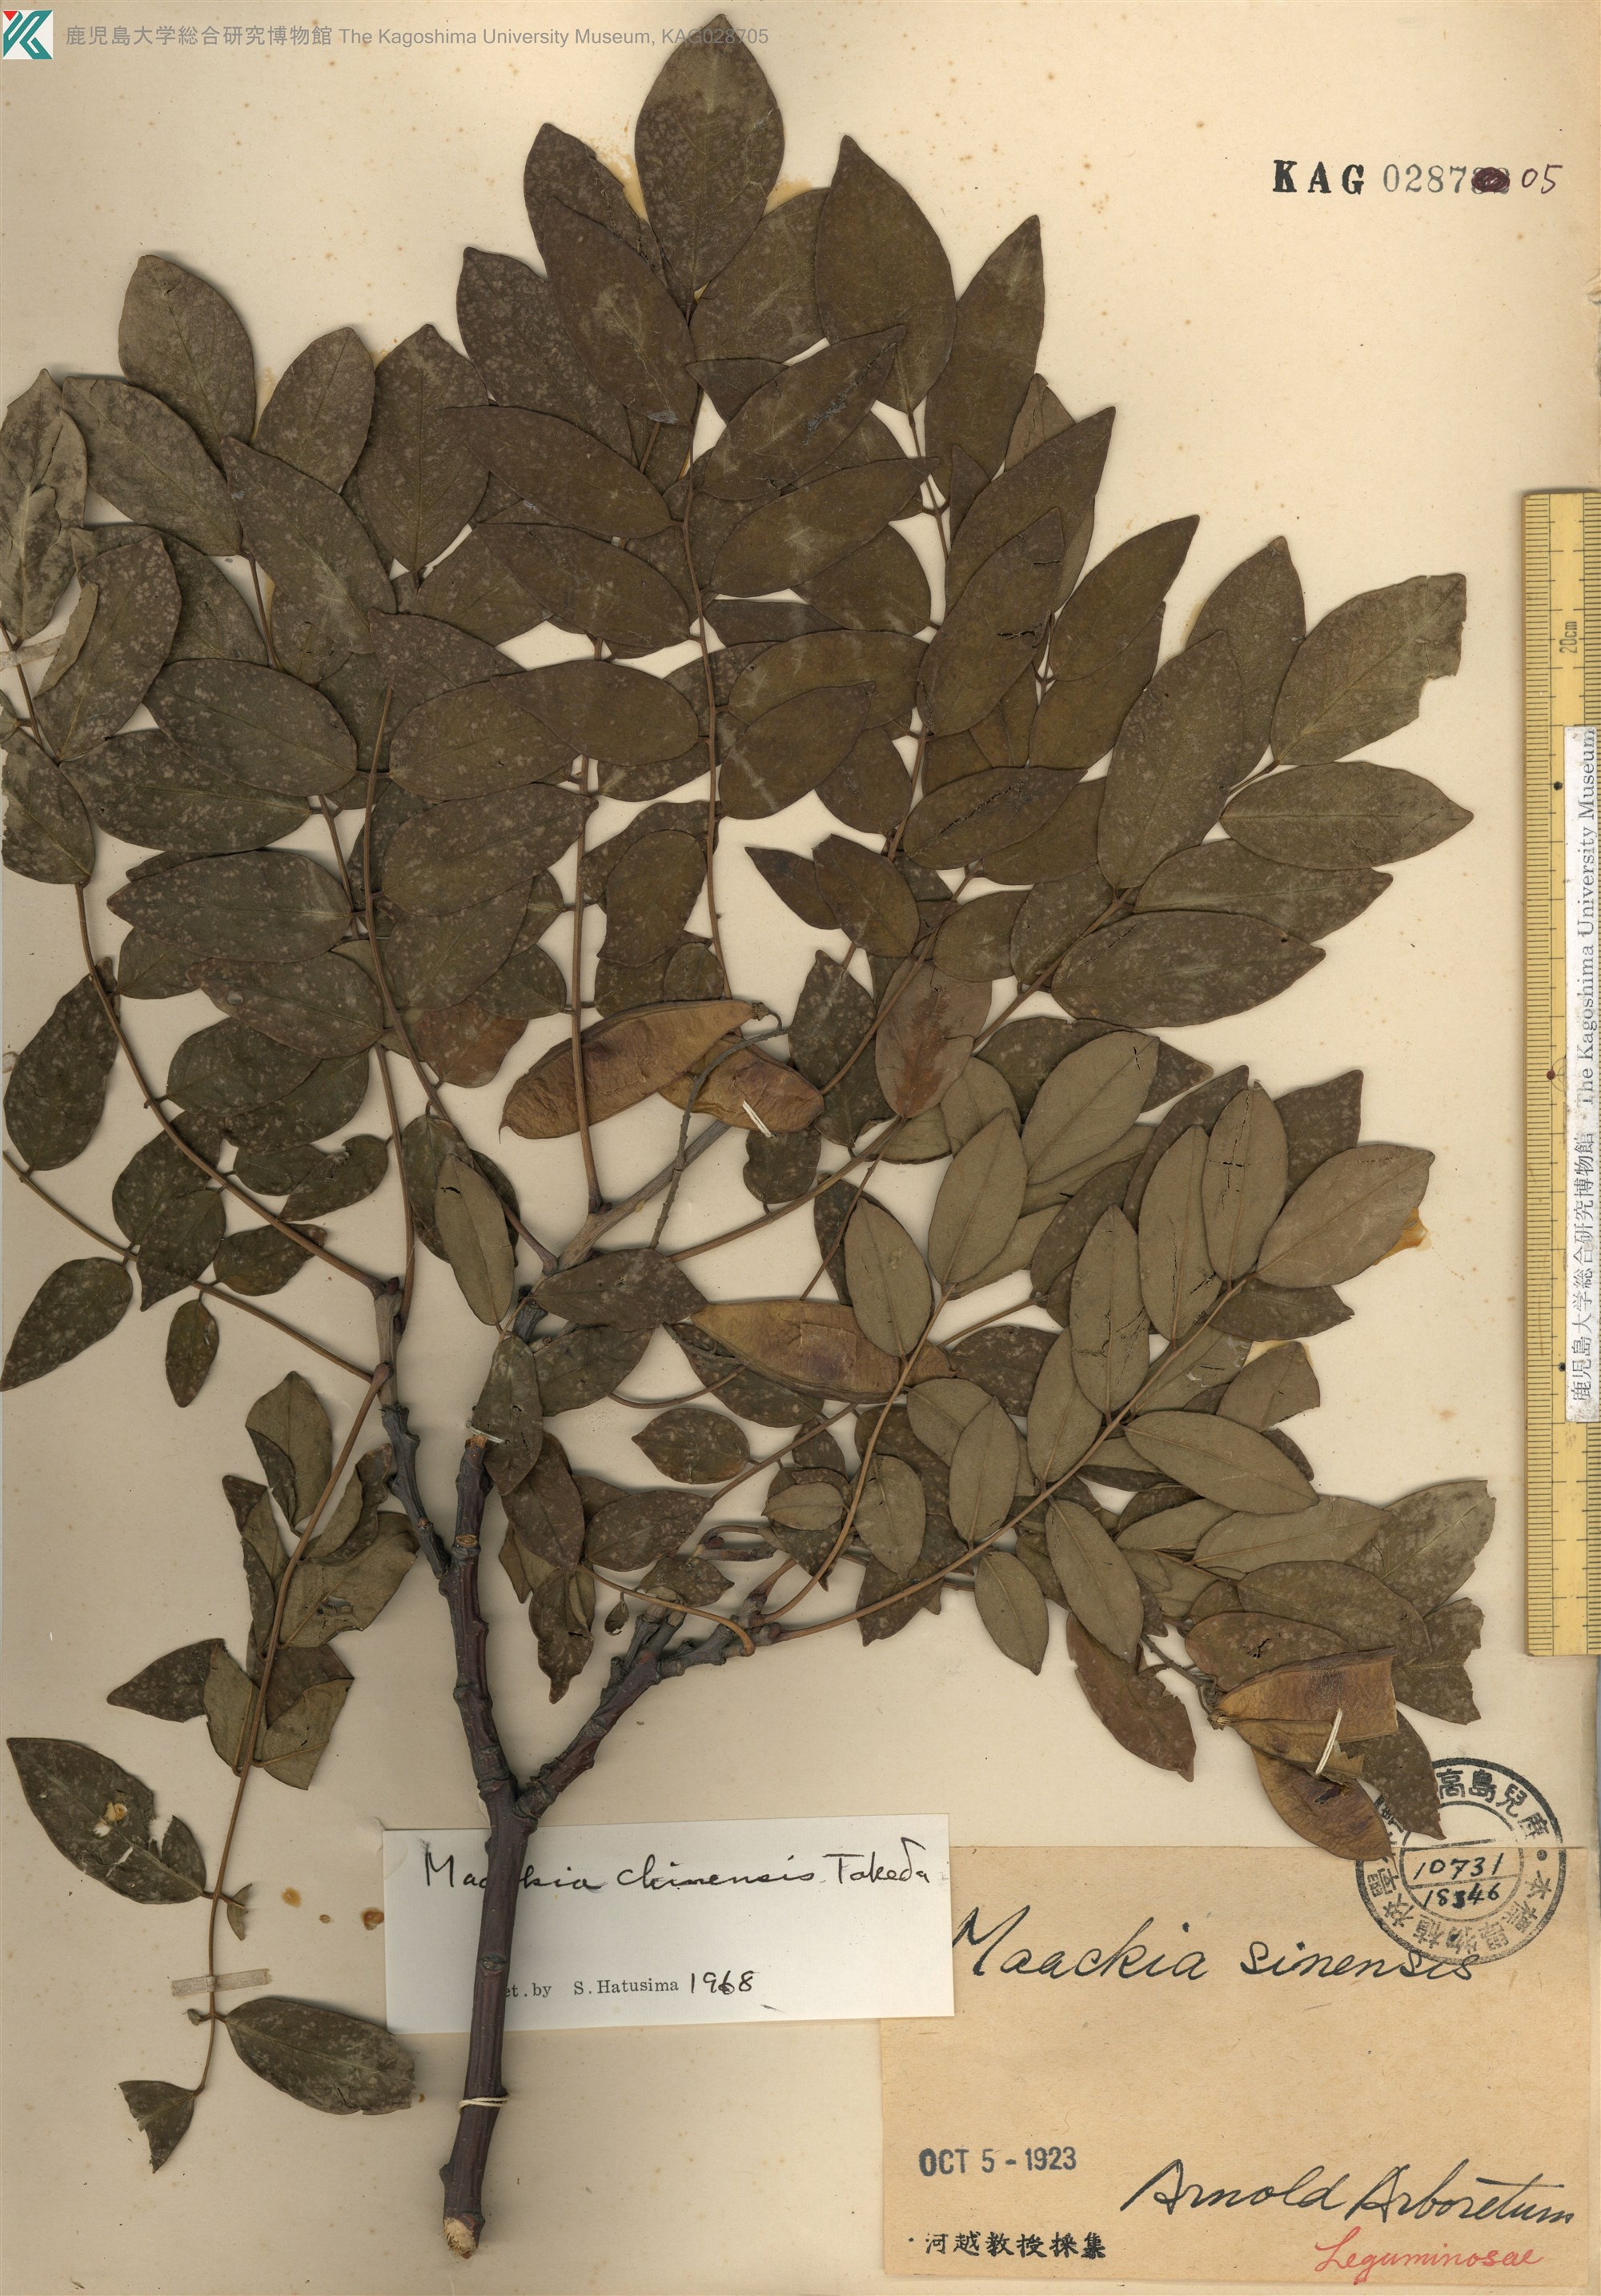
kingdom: Plantae
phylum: Tracheophyta
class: Magnoliopsida
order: Fabales
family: Fabaceae
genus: Maackia
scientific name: Maackia amurensis
